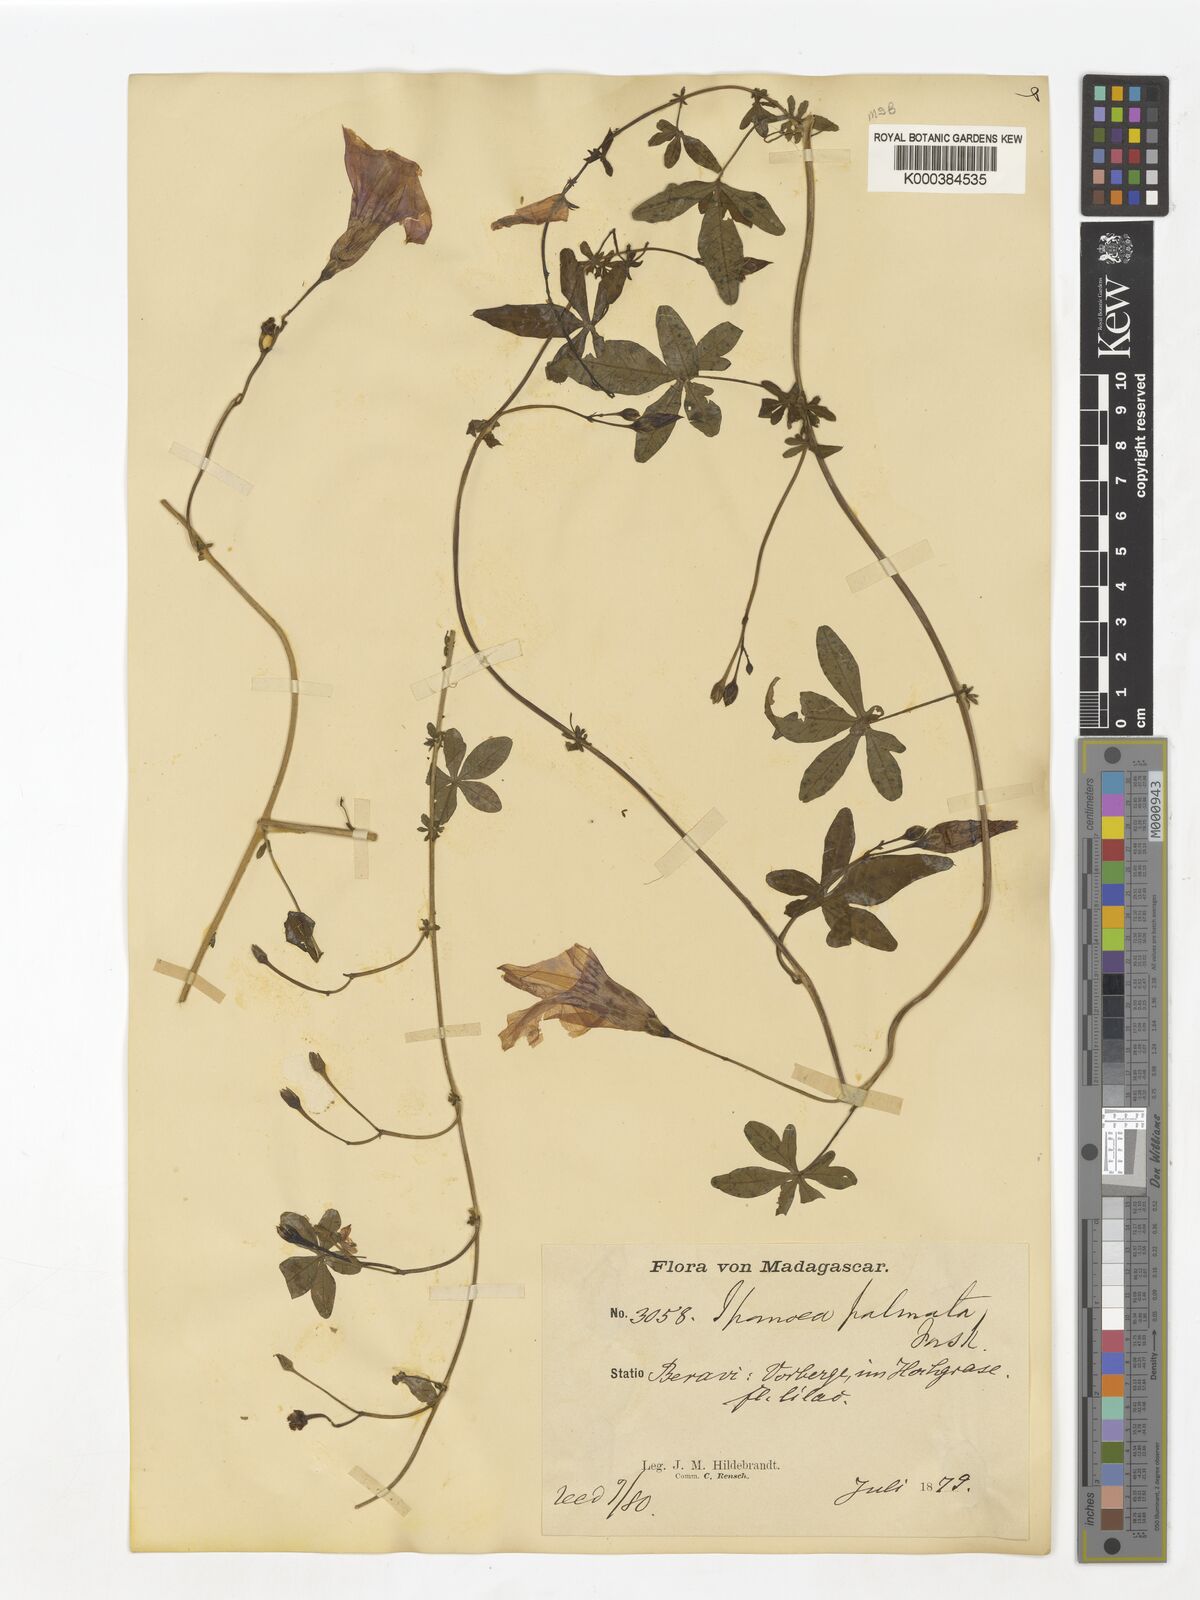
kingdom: Plantae
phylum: Tracheophyta
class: Magnoliopsida
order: Solanales
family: Convolvulaceae
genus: Ipomoea
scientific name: Ipomoea cairica
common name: Mile a minute vine
